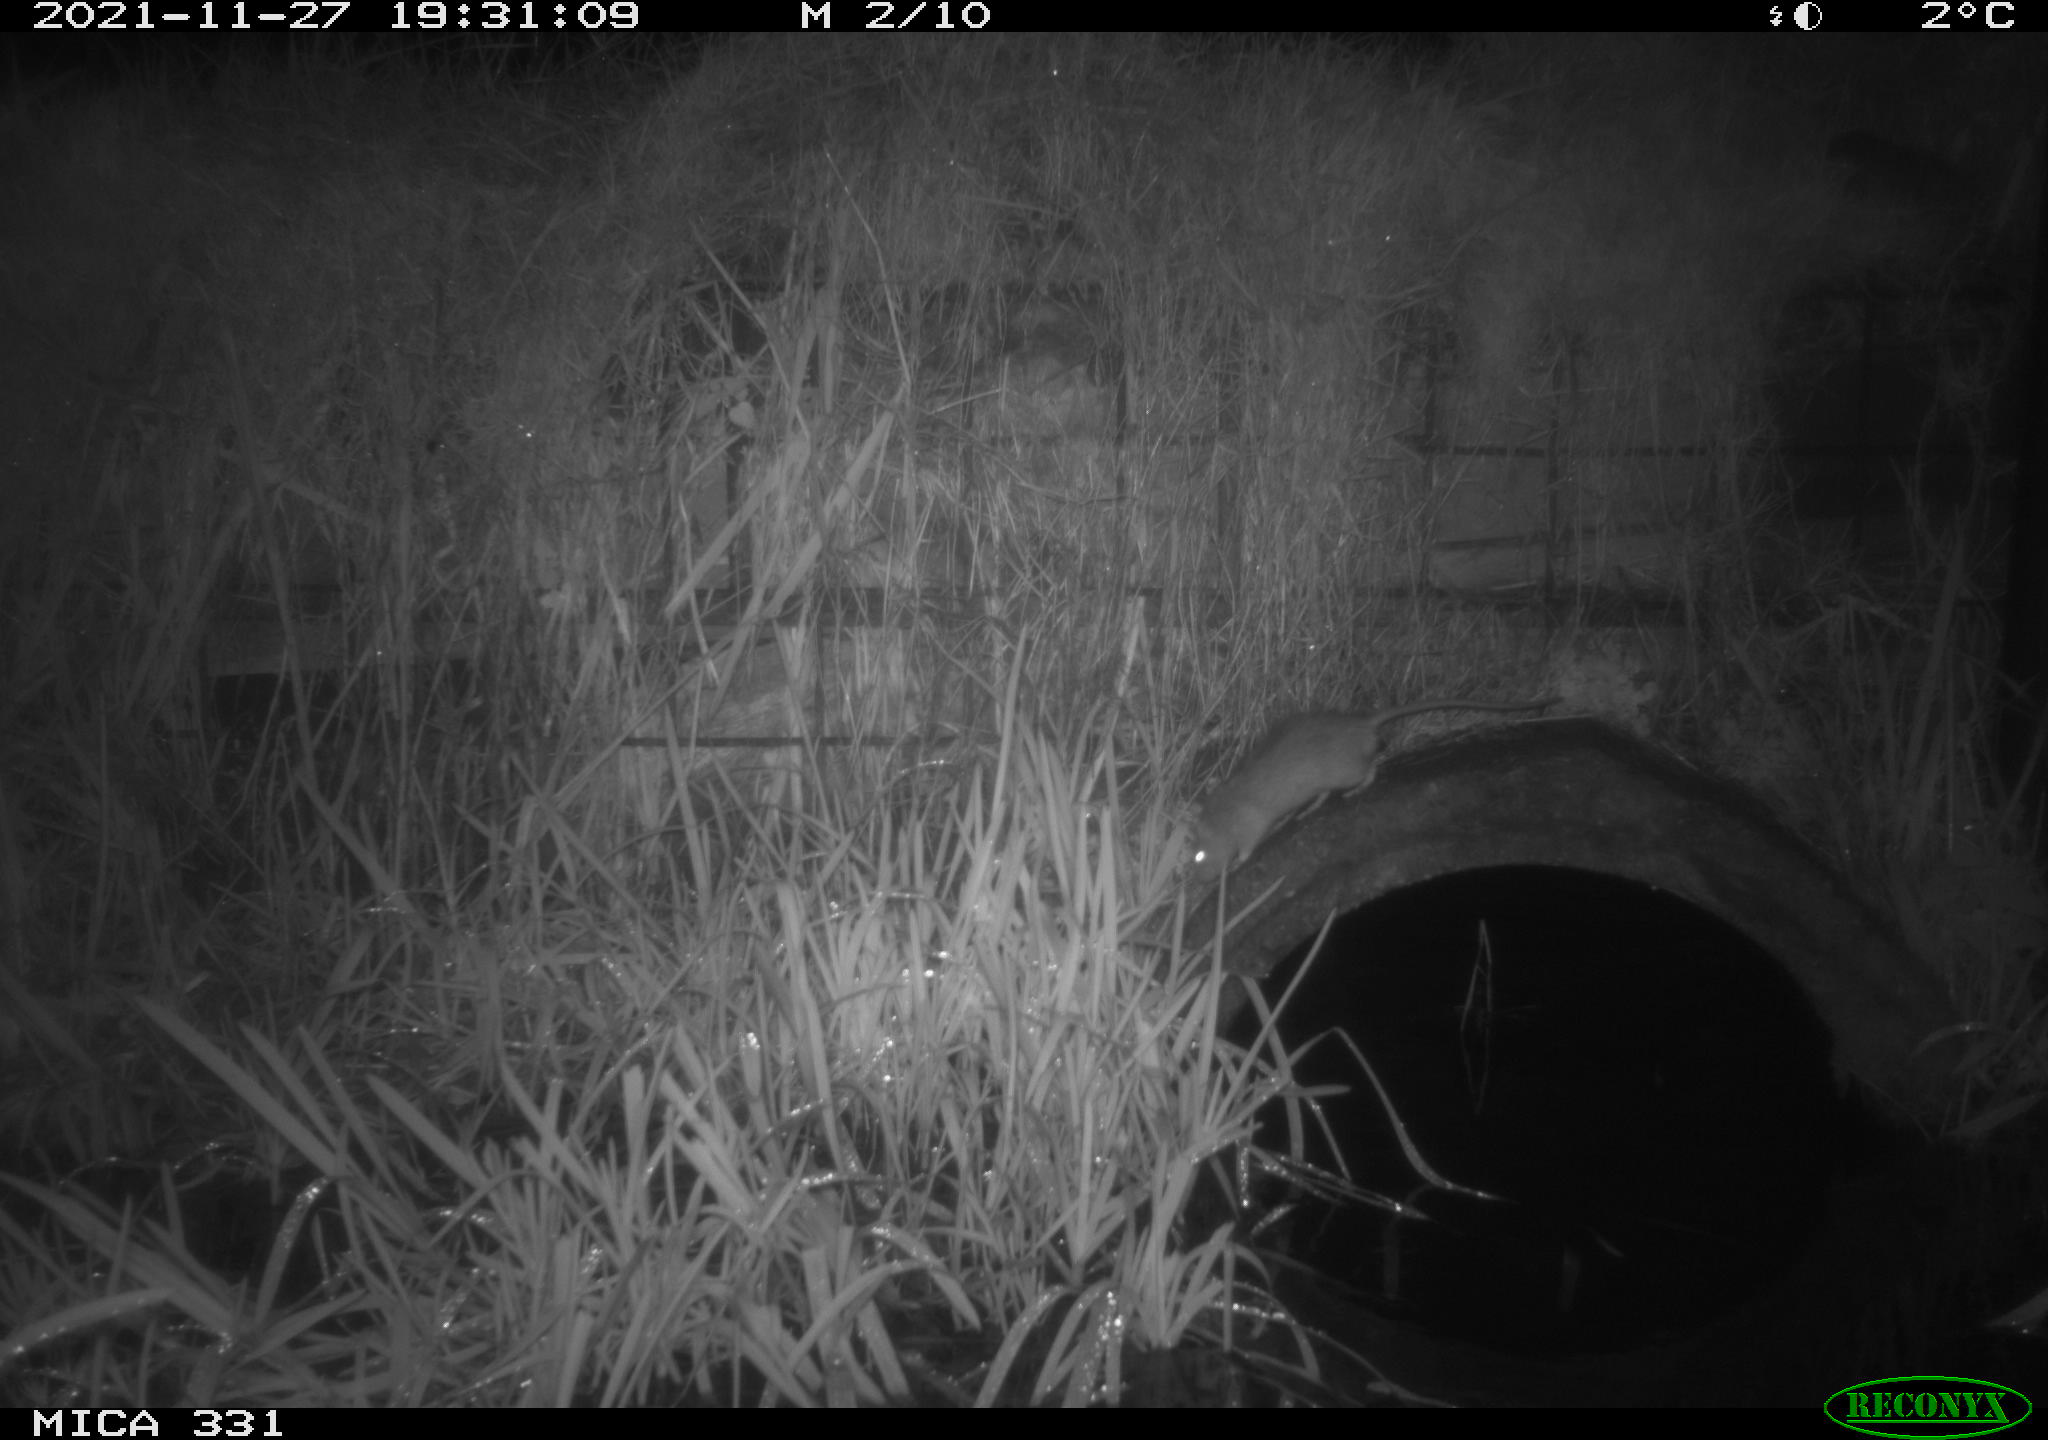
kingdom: Animalia
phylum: Chordata
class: Mammalia
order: Rodentia
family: Muridae
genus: Rattus
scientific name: Rattus norvegicus
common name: Brown rat
